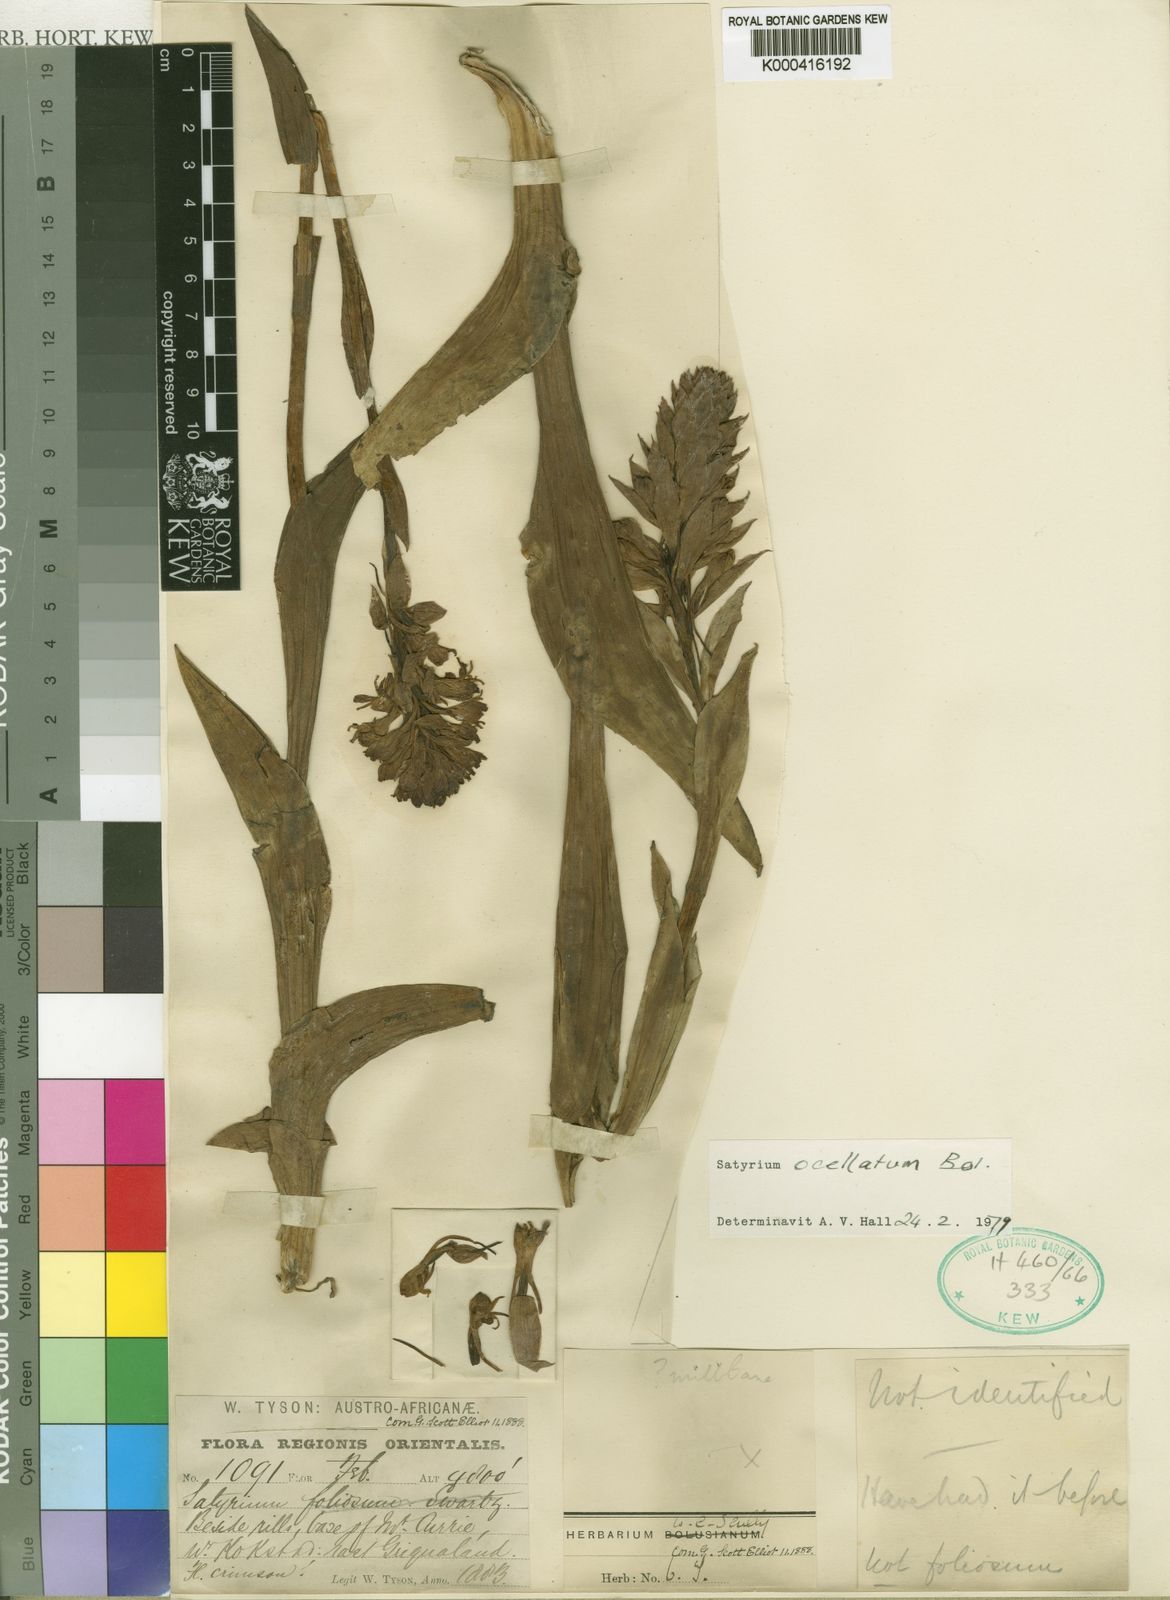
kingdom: Plantae
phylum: Tracheophyta
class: Liliopsida
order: Asparagales
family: Orchidaceae
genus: Satyrium
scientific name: Satyrium hallackii
